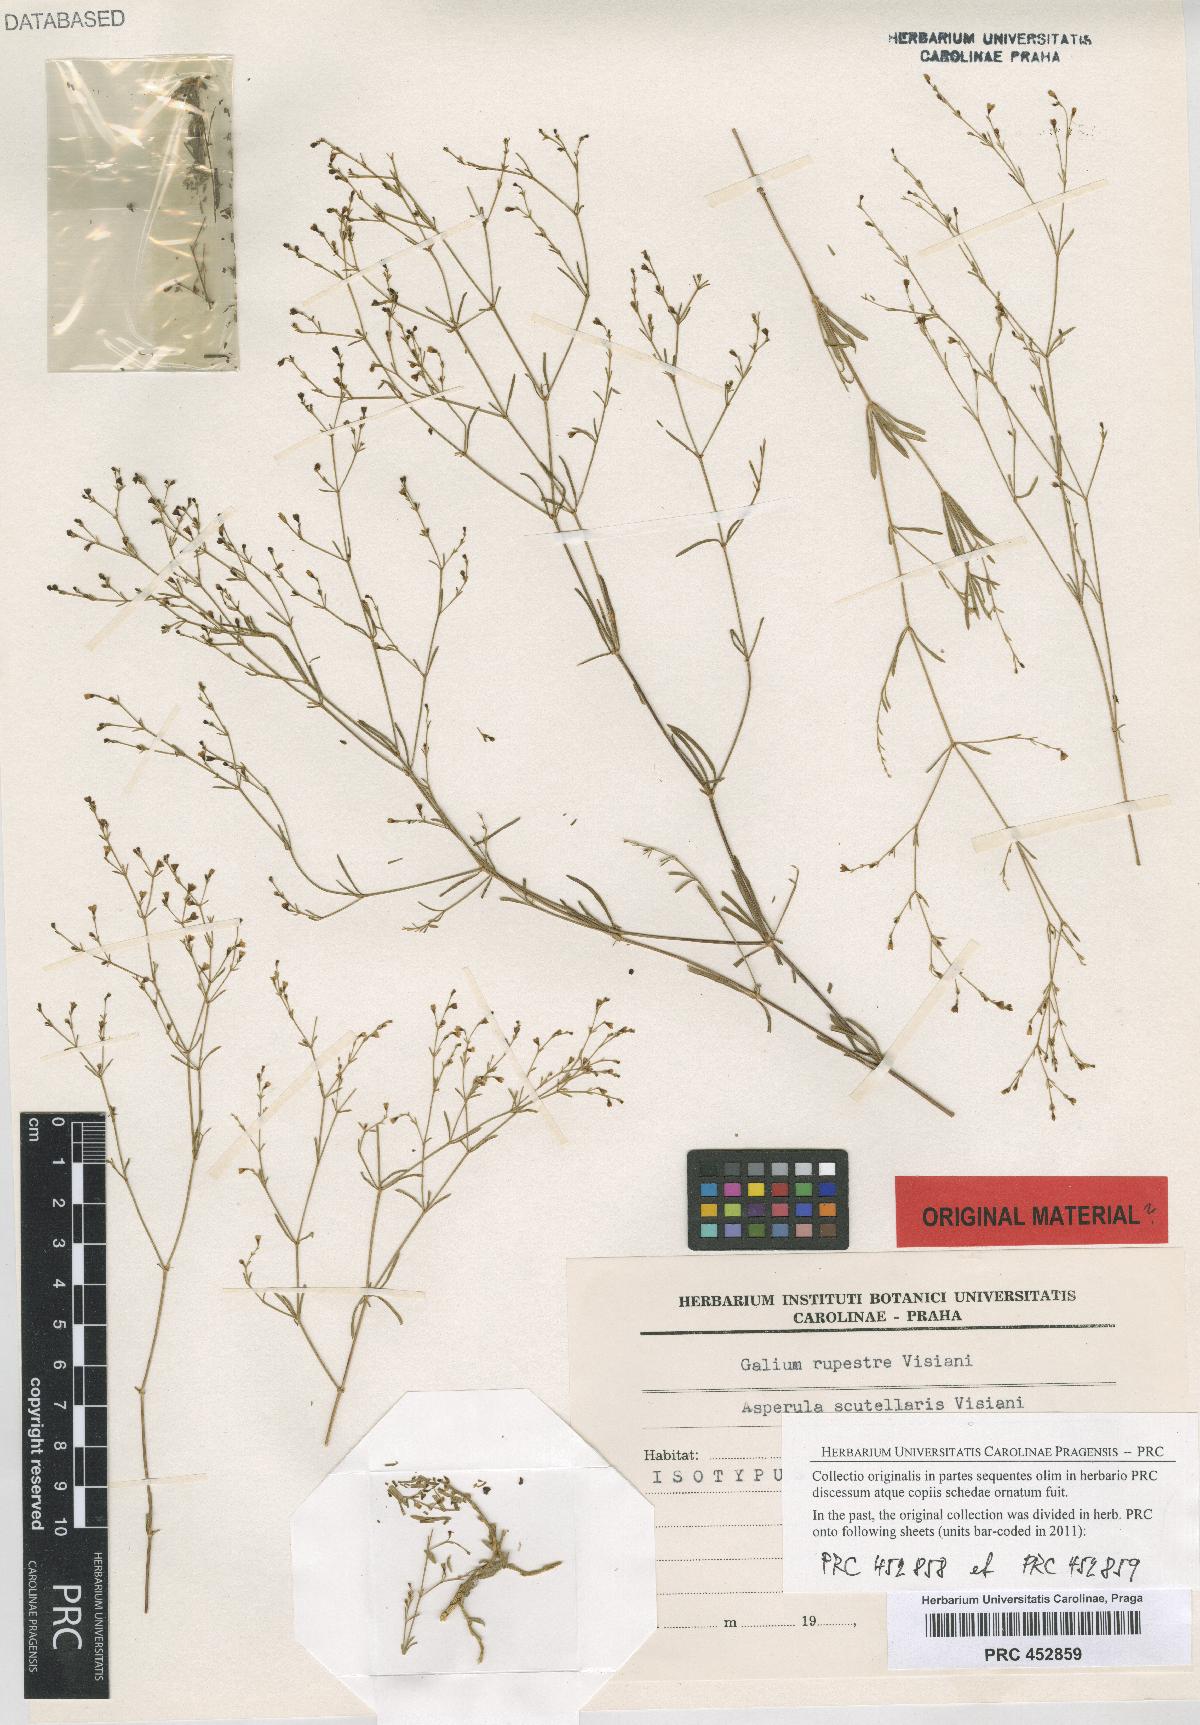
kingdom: Plantae
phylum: Tracheophyta
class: Magnoliopsida
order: Gentianales
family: Rubiaceae
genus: Thliphthisa
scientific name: Thliphthisa rupestris
